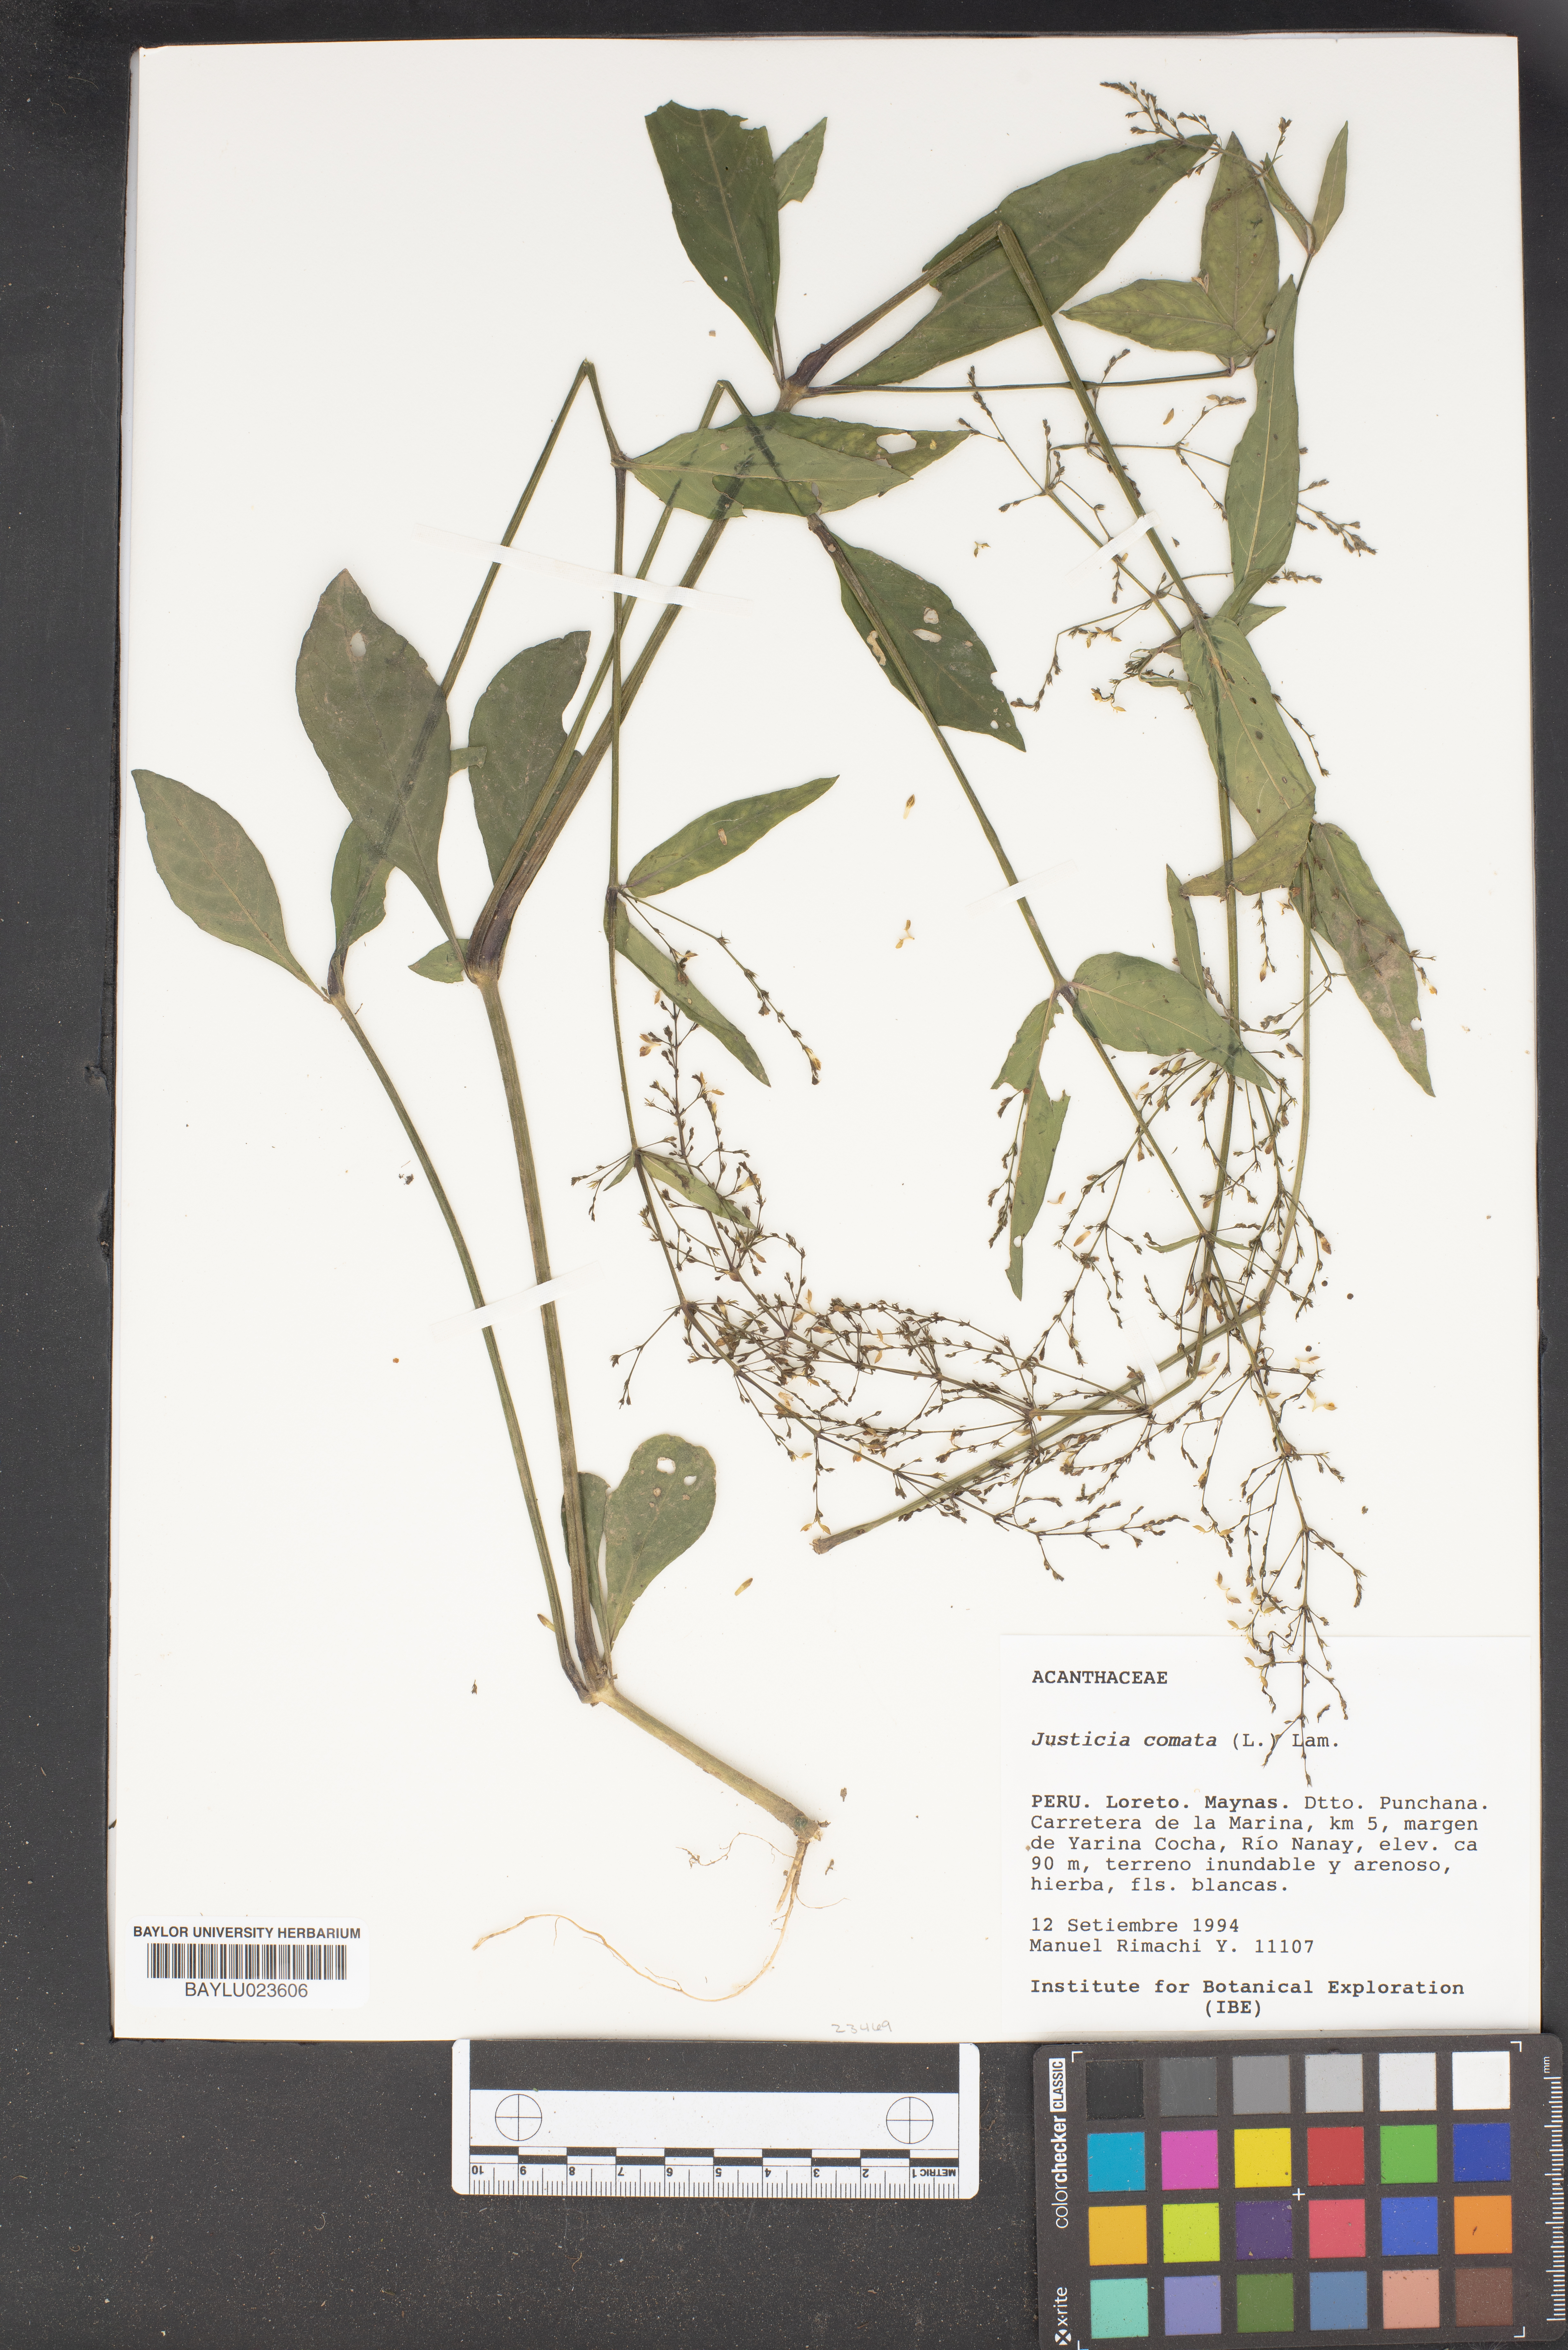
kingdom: Plantae
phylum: Tracheophyta
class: Magnoliopsida
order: Lamiales
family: Acanthaceae
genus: Dianthera
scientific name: Dianthera comata
